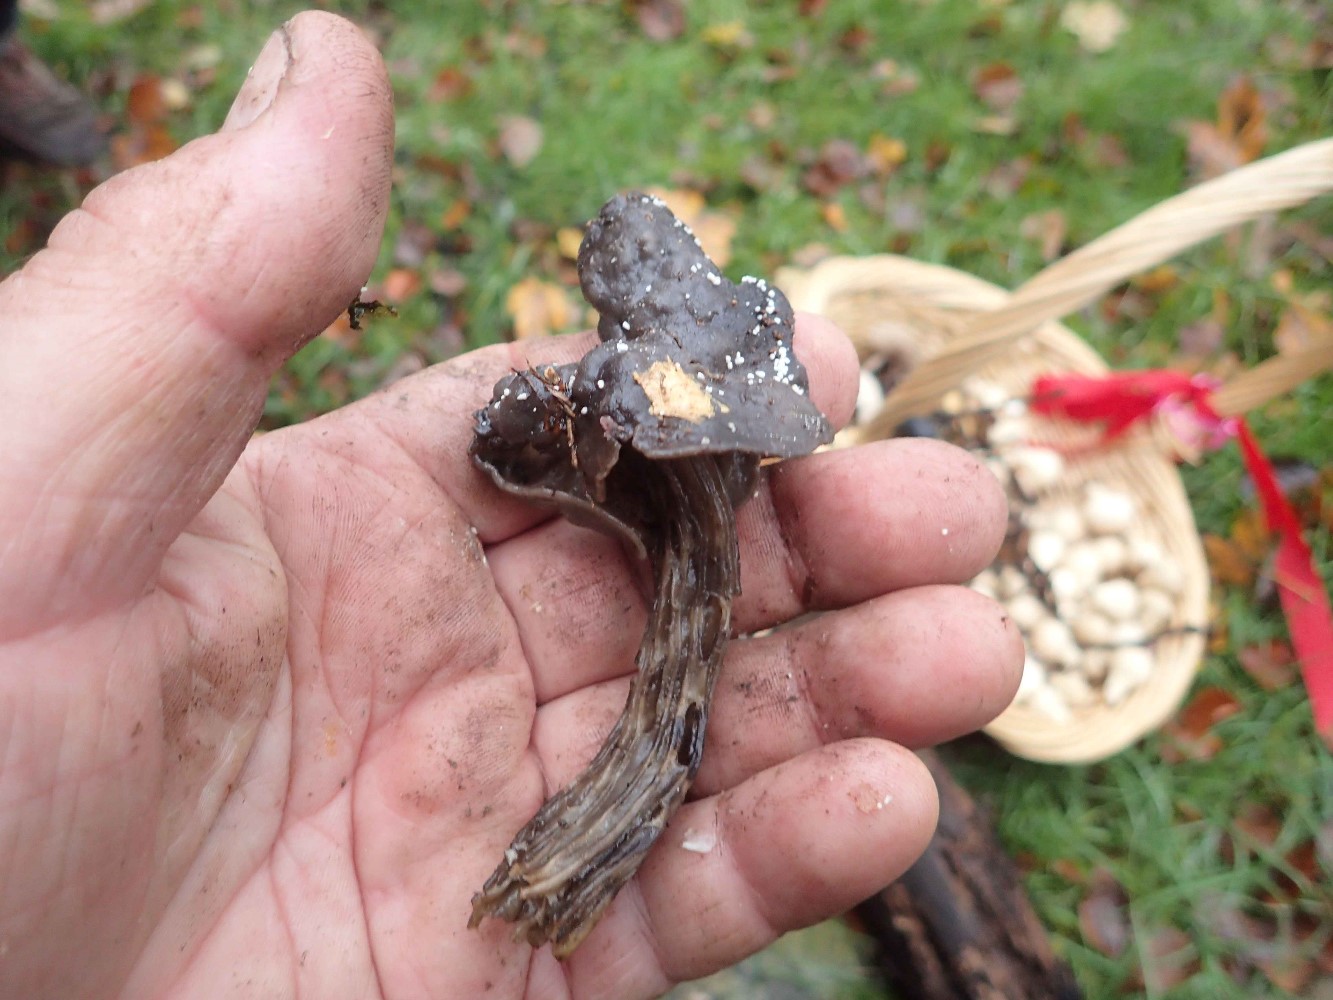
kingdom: Fungi
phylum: Ascomycota
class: Pezizomycetes
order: Pezizales
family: Helvellaceae
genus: Helvella
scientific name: Helvella lacunosa
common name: grubet foldhat
